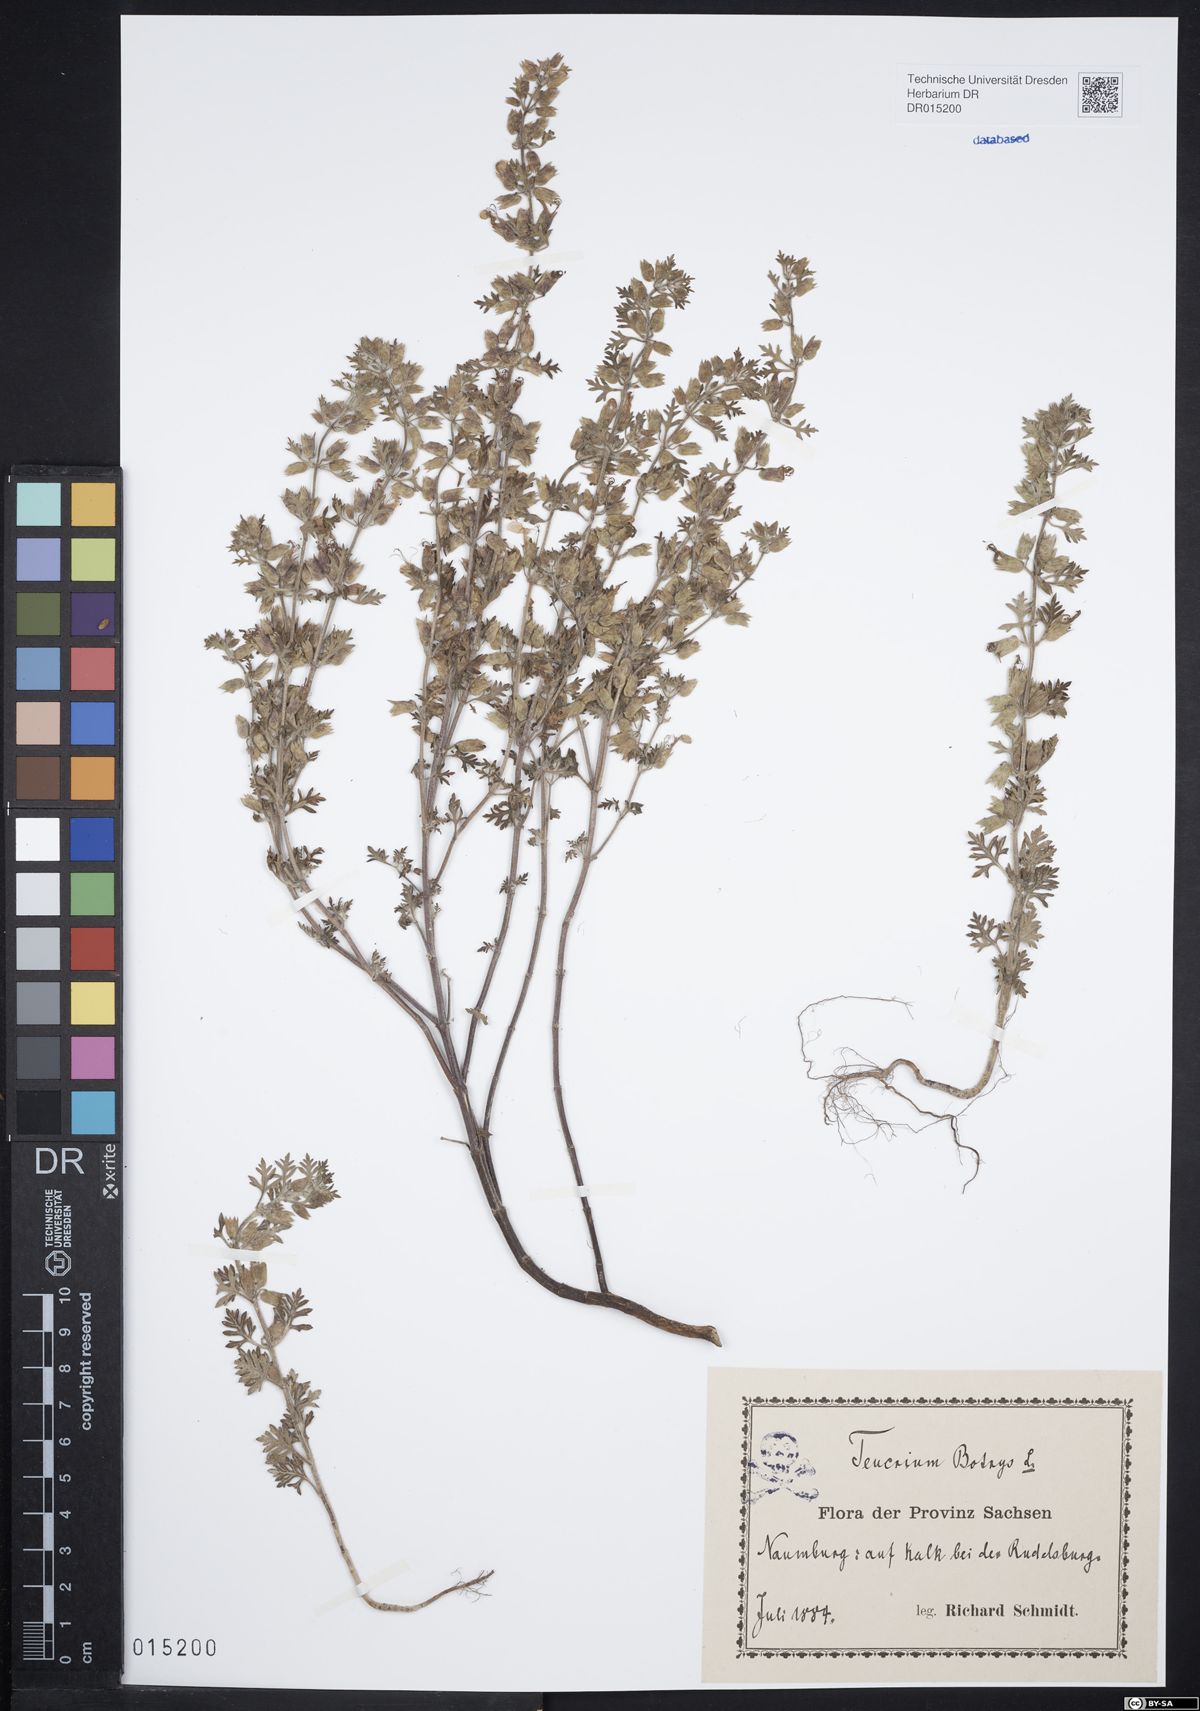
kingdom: Plantae
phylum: Tracheophyta
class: Magnoliopsida
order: Lamiales
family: Lamiaceae
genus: Teucrium
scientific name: Teucrium botrys
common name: Cut-leaved germander
